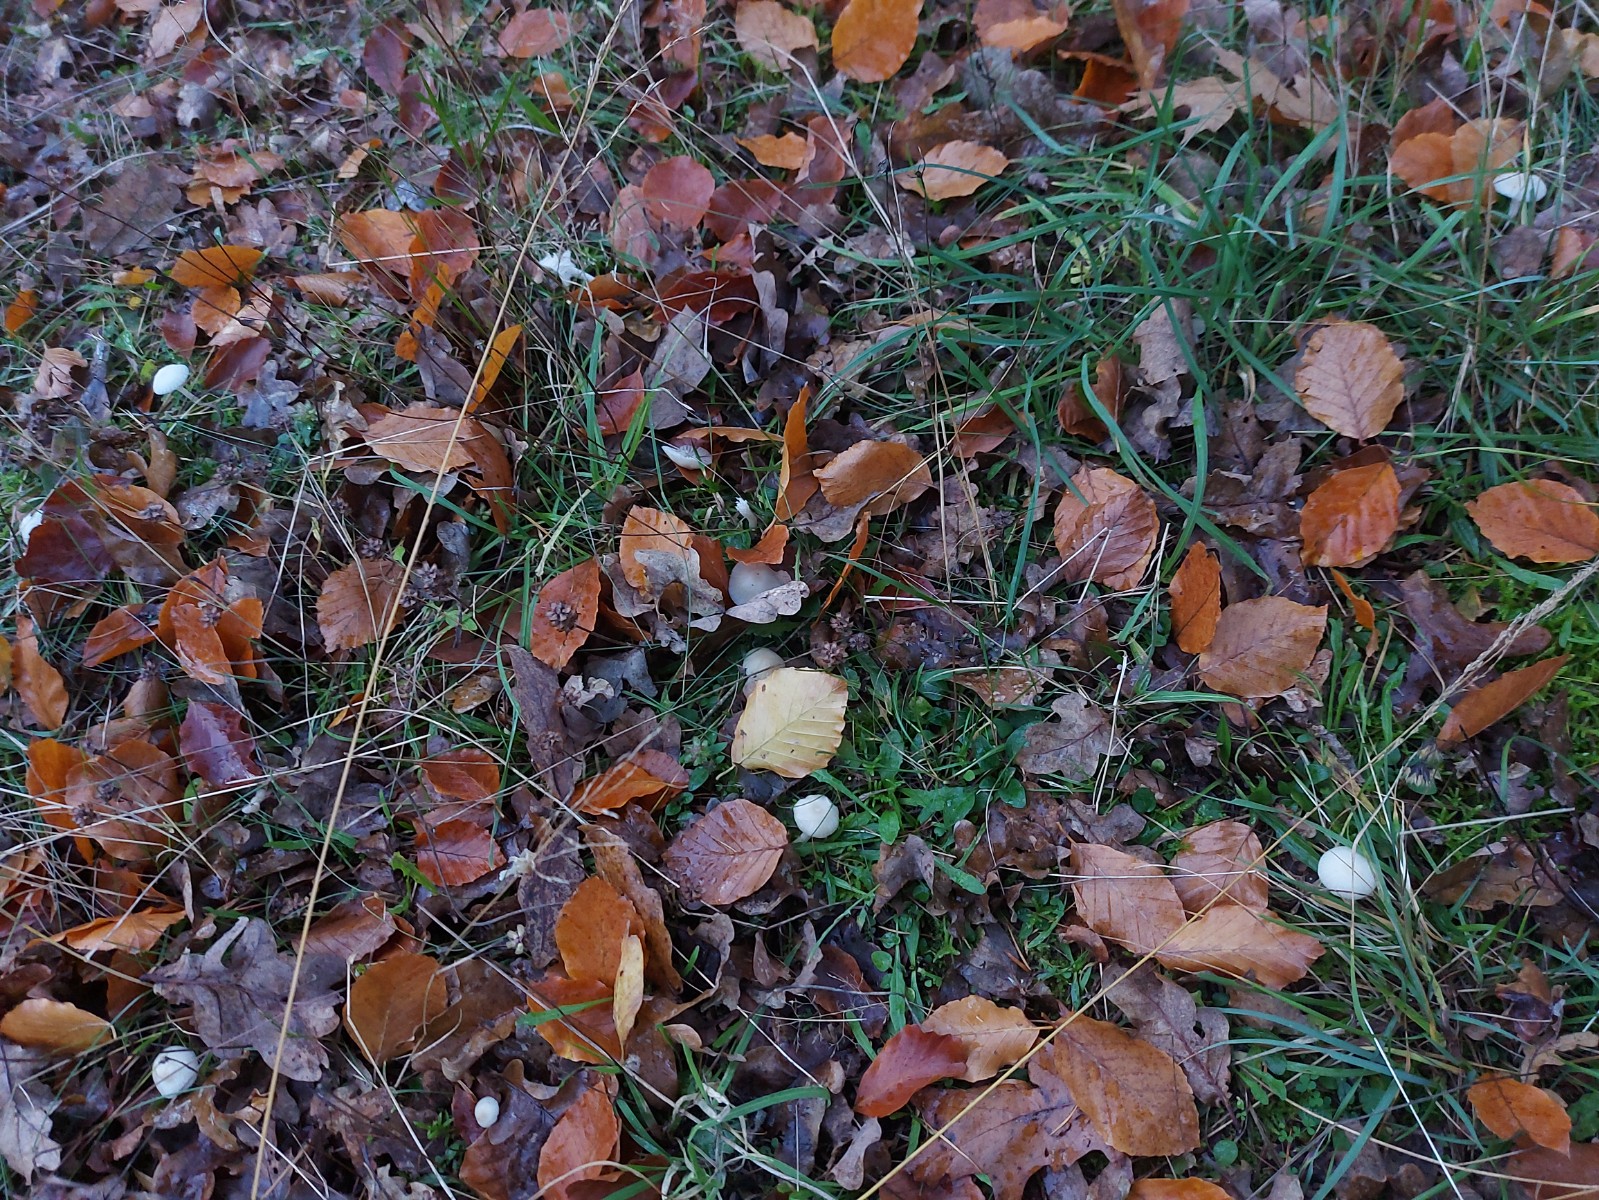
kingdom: Fungi
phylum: Basidiomycota
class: Agaricomycetes
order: Agaricales
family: Hygrophoraceae
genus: Cuphophyllus
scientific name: Cuphophyllus virgineus
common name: snehvid vokshat
